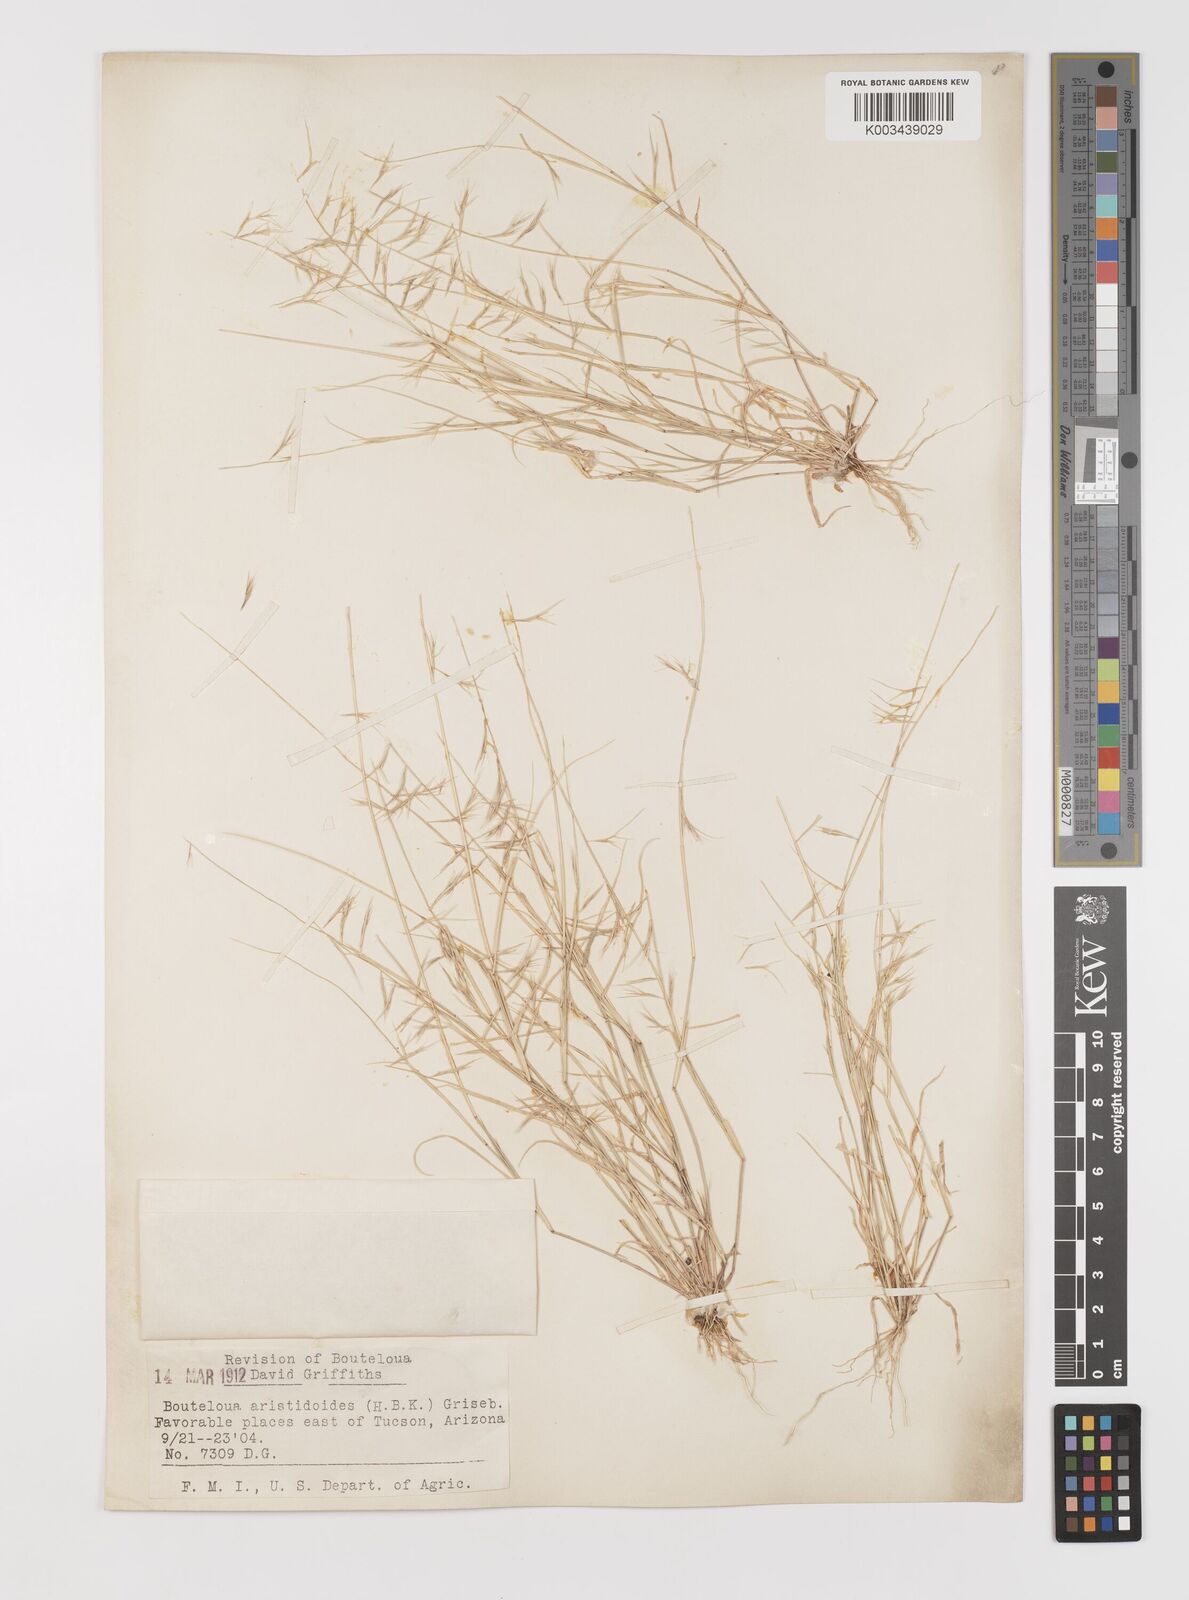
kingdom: Plantae
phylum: Tracheophyta
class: Liliopsida
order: Poales
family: Poaceae
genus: Bouteloua
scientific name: Bouteloua aristidoides
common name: Needle grama
